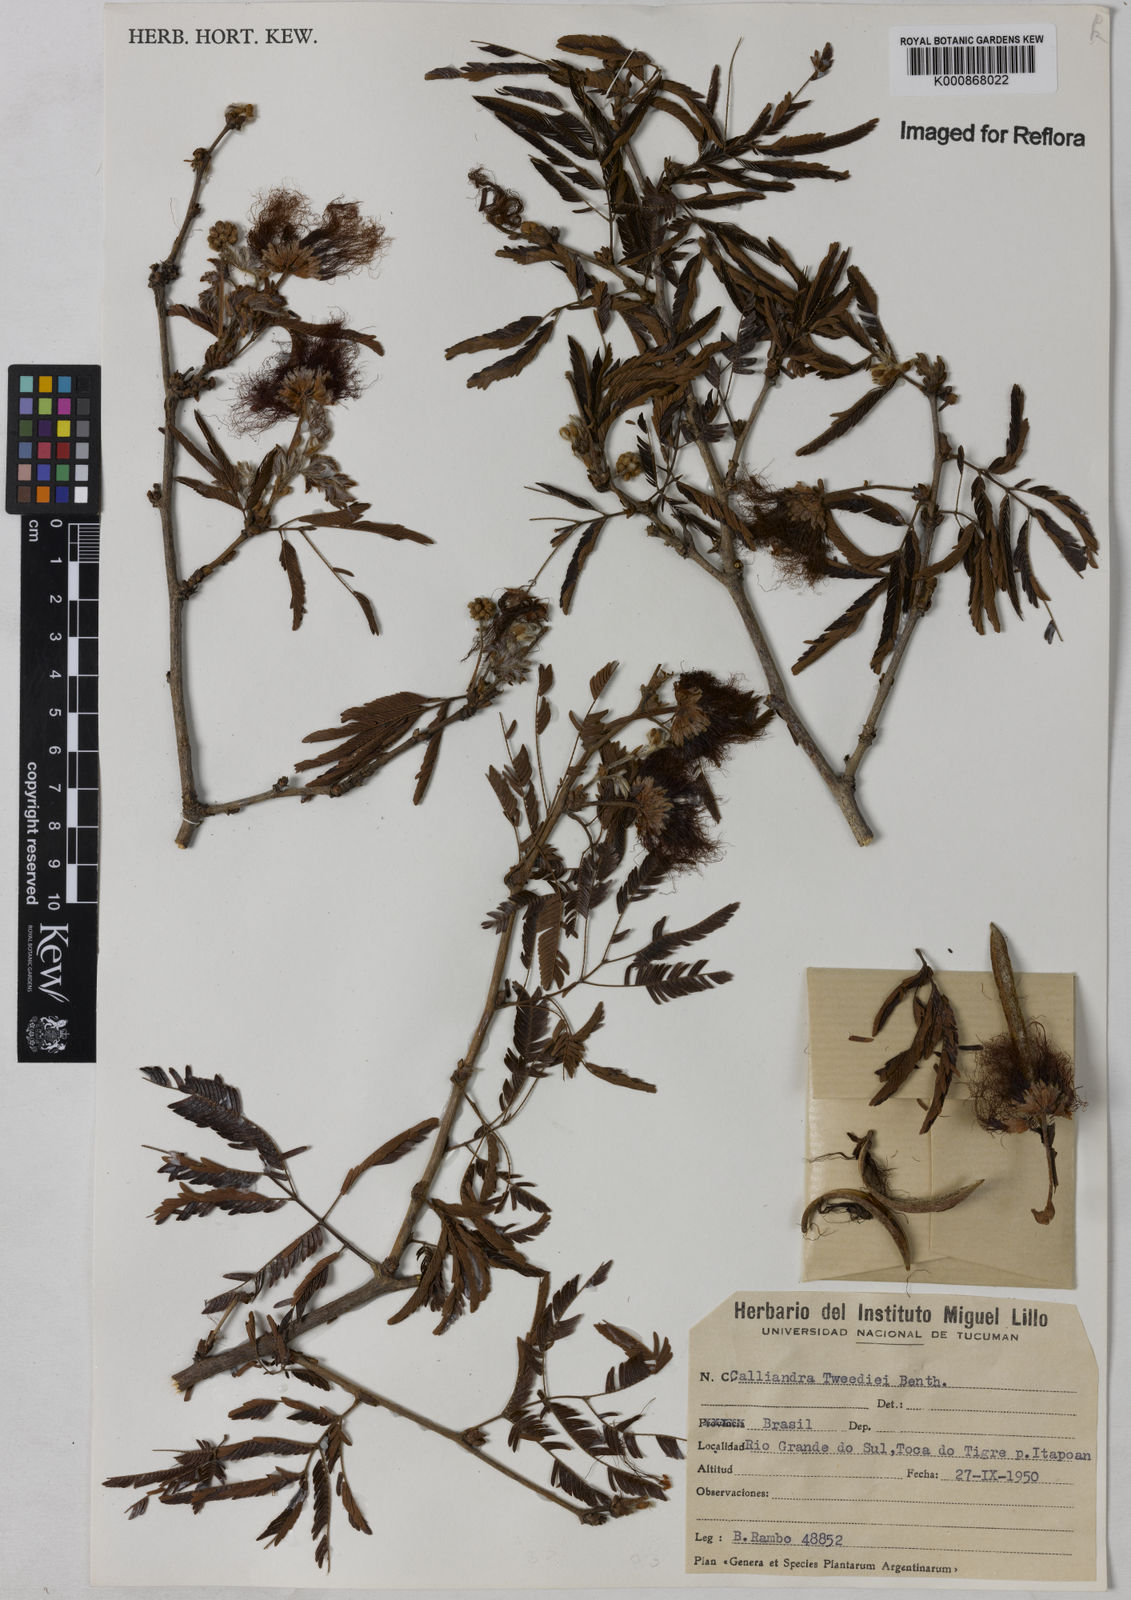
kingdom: Plantae
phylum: Tracheophyta
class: Magnoliopsida
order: Fabales
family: Fabaceae
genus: Calliandra
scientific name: Calliandra tweediei
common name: Mexican flamebush
